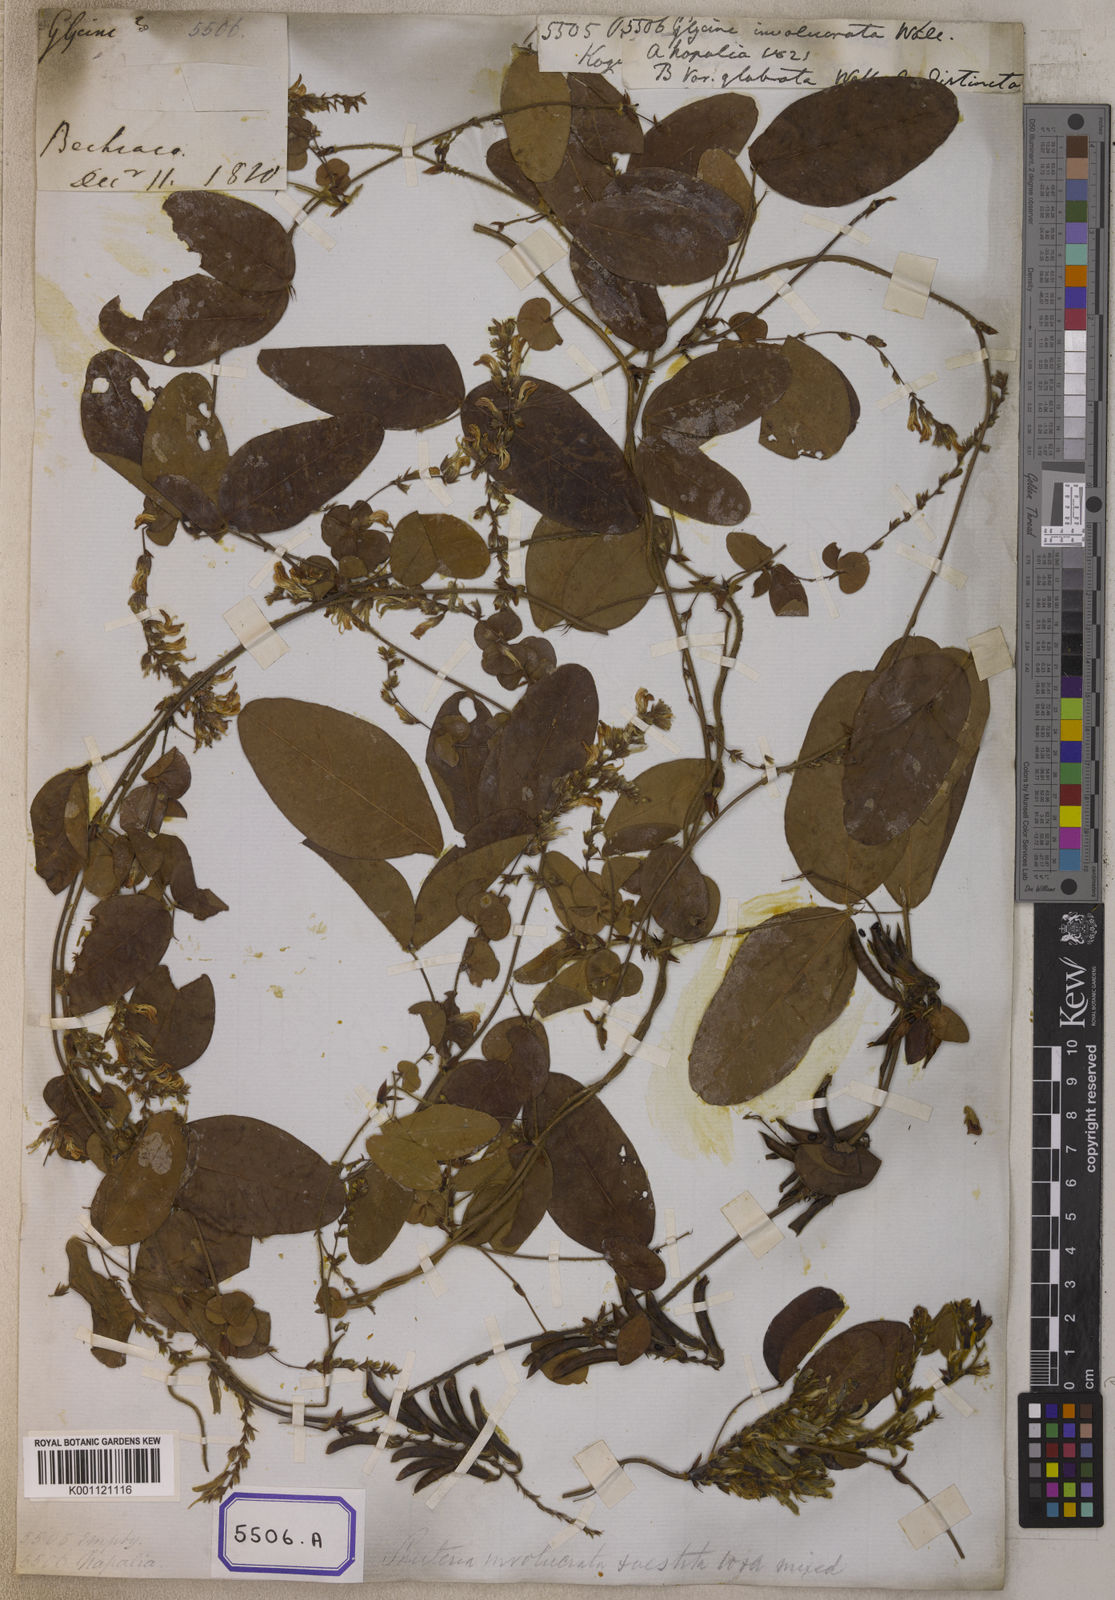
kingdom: Plantae
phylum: Tracheophyta
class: Magnoliopsida
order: Fabales
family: Fabaceae
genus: Shuteria
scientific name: Shuteria involucrata
